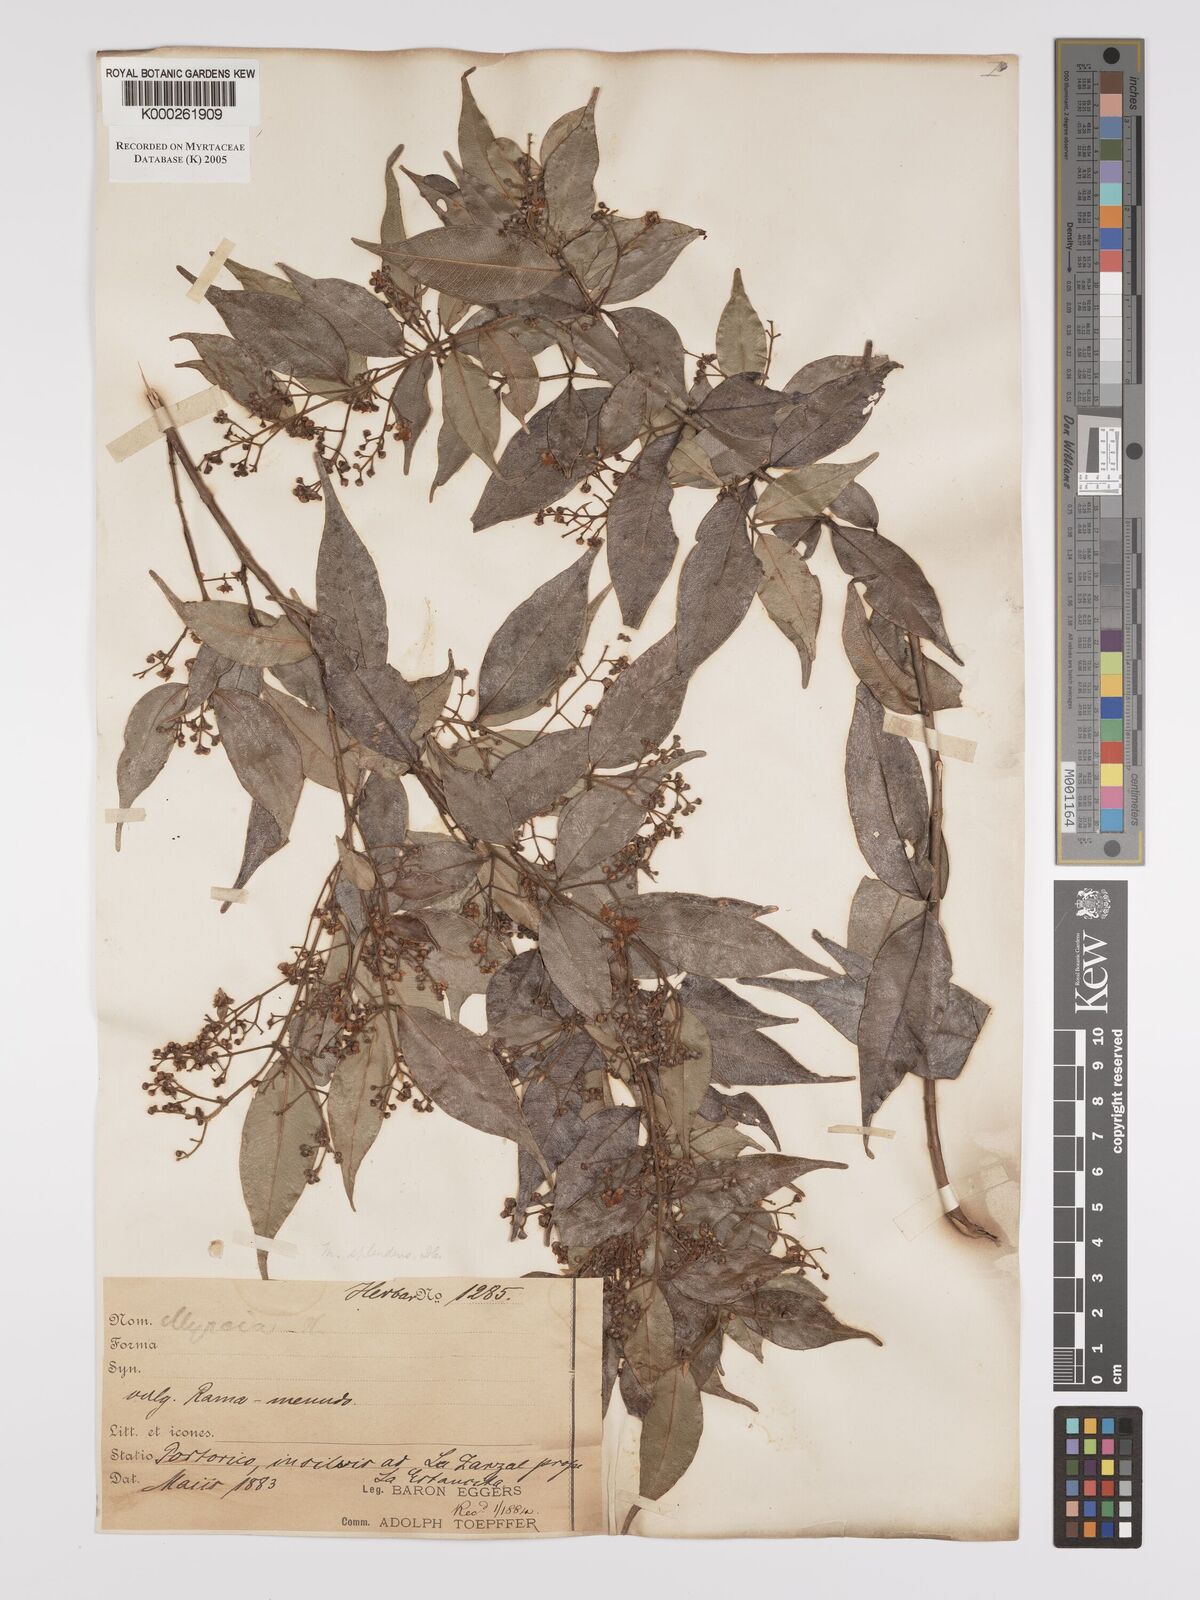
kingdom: Plantae
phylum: Tracheophyta
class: Magnoliopsida
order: Myrtales
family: Myrtaceae
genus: Myrcia
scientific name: Myrcia splendens
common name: Surinam cherry
